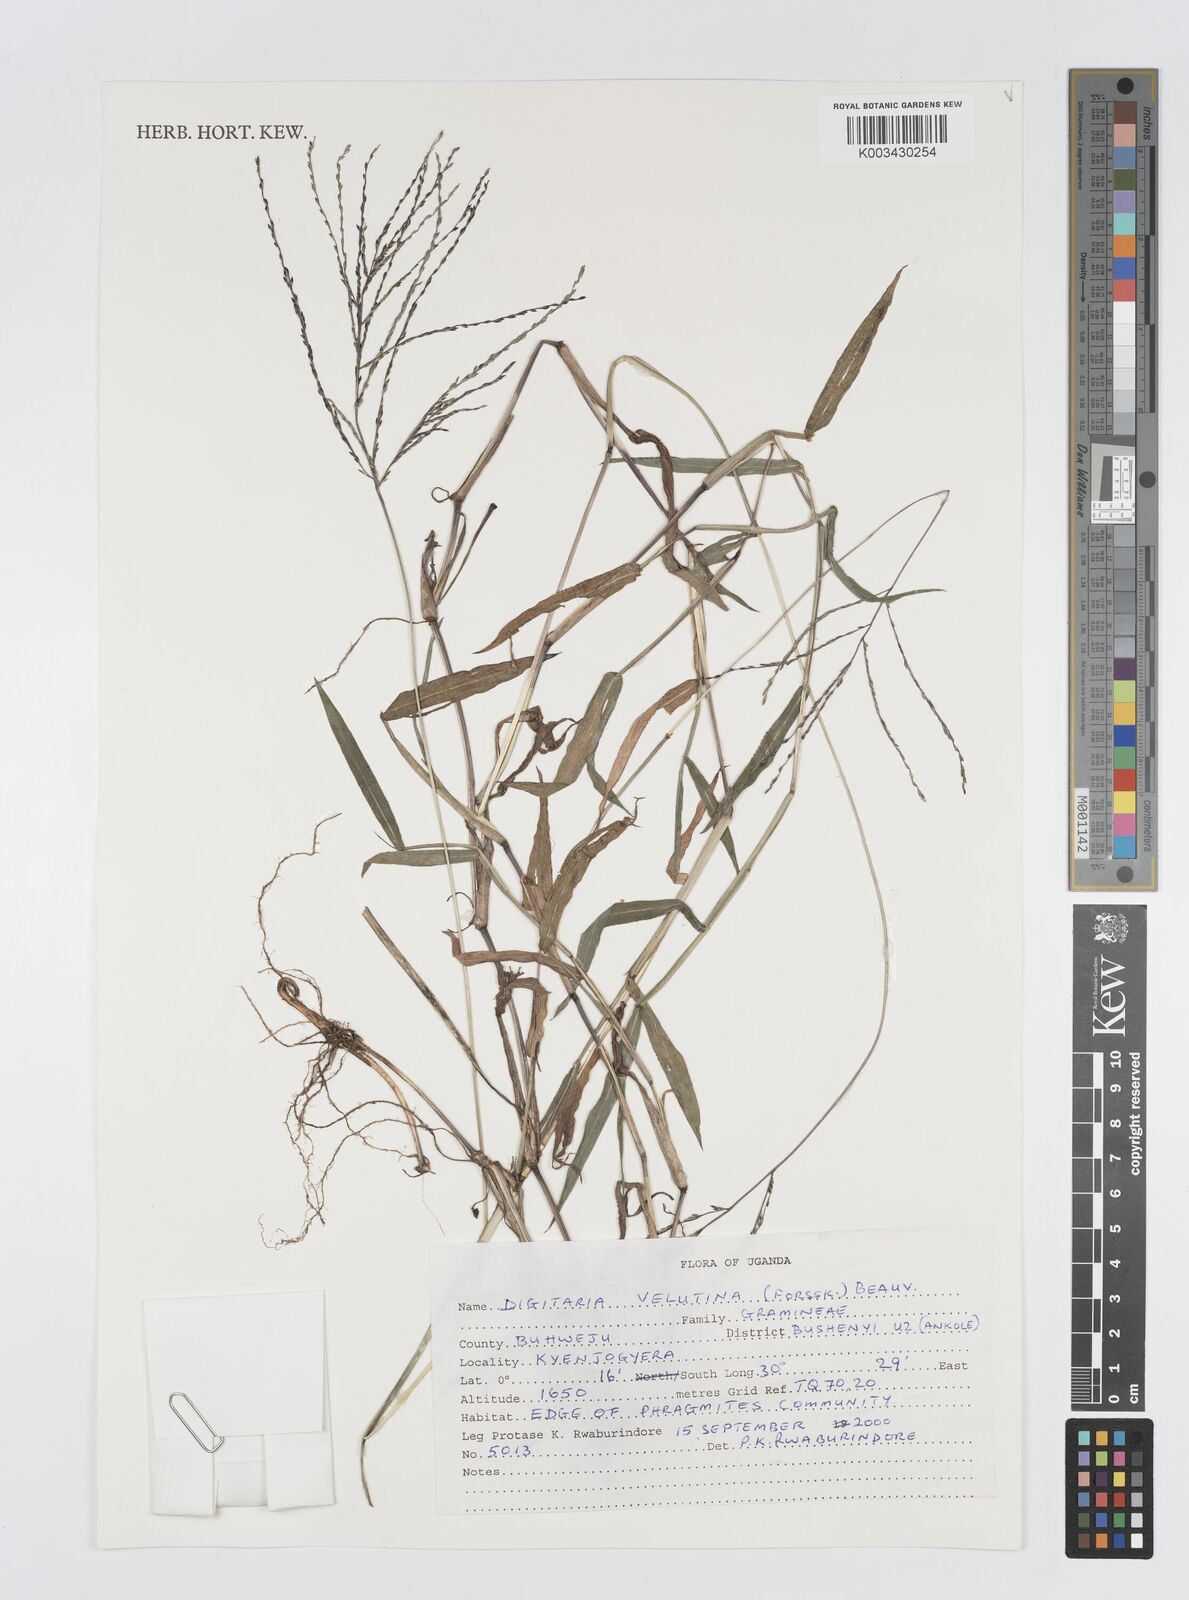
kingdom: Plantae
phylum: Tracheophyta
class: Liliopsida
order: Poales
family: Poaceae
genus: Digitaria
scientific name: Digitaria velutina
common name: Long-plume finger grass
